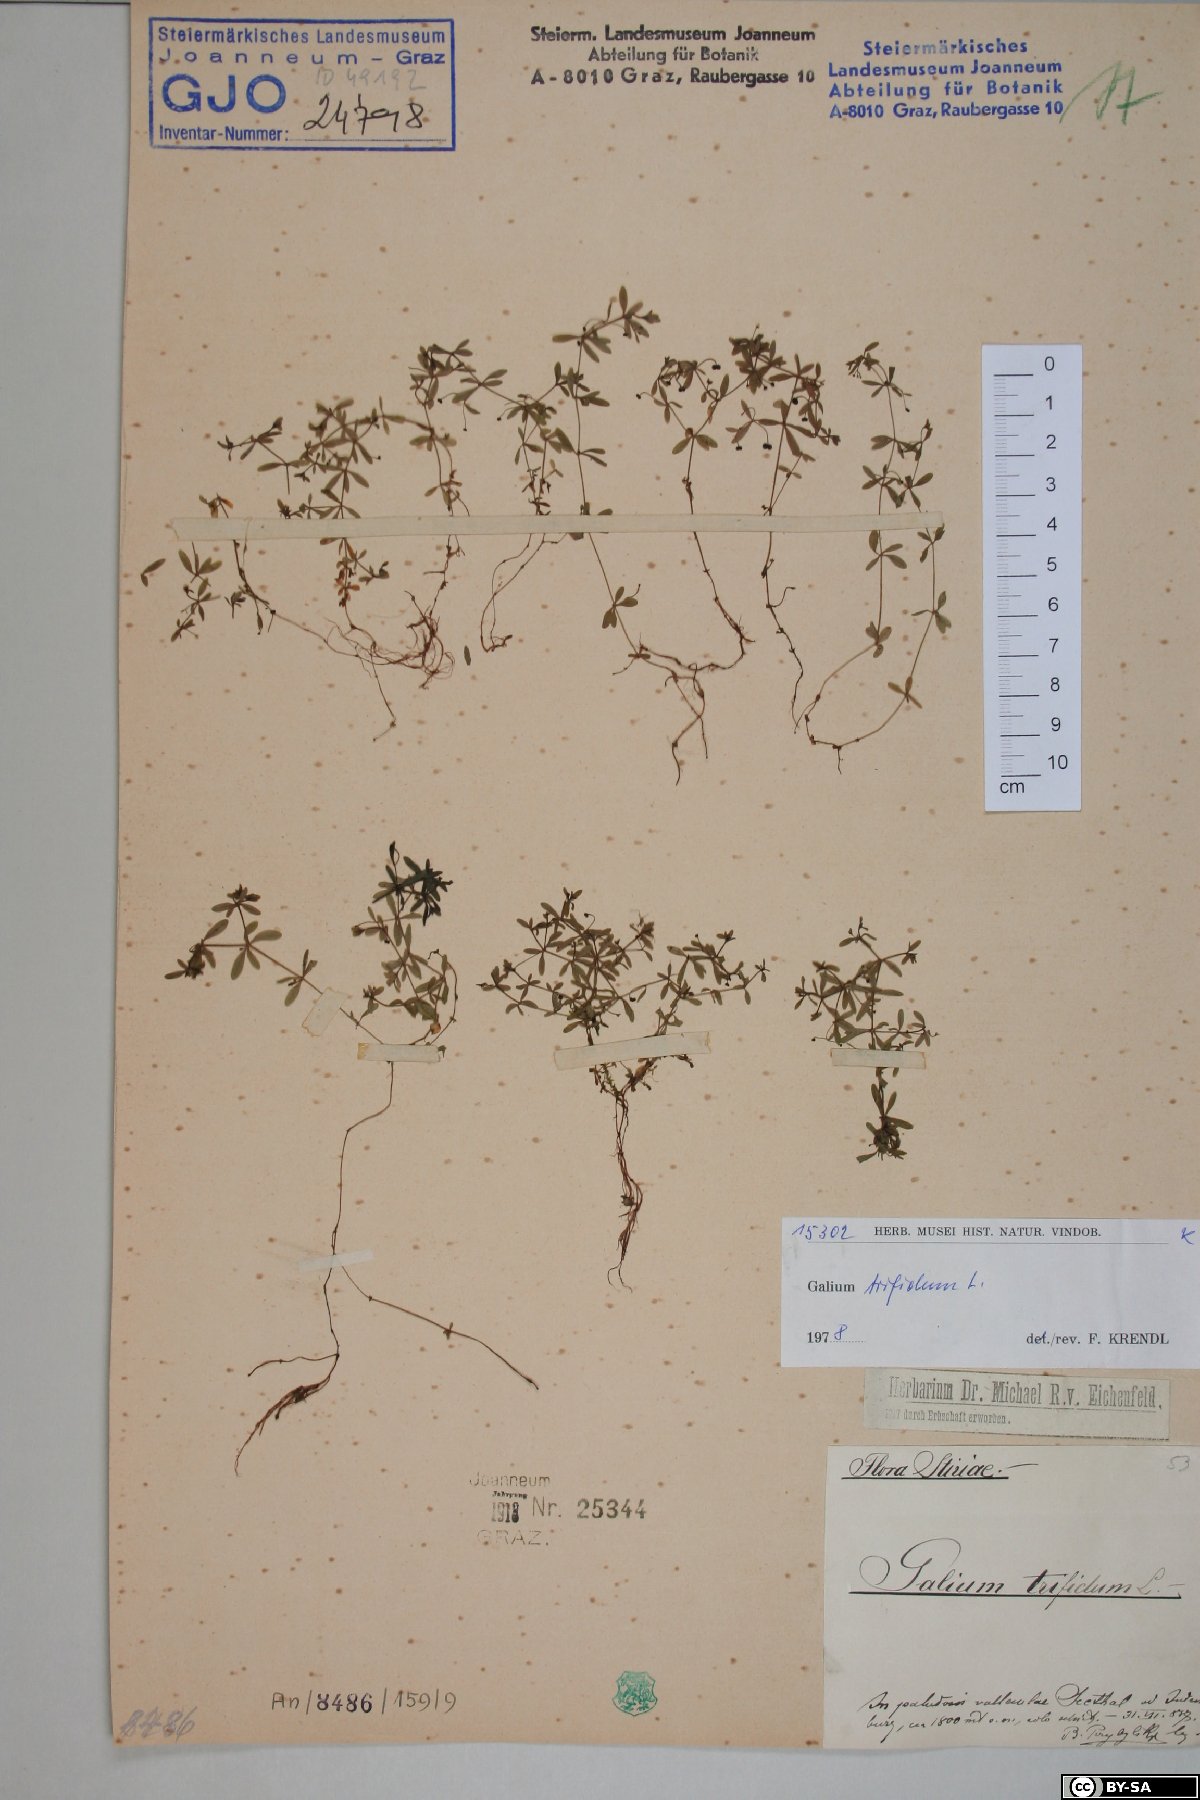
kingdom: Plantae
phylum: Tracheophyta
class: Magnoliopsida
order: Gentianales
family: Rubiaceae
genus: Galium
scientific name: Galium trifidum
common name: Small bedstraw
